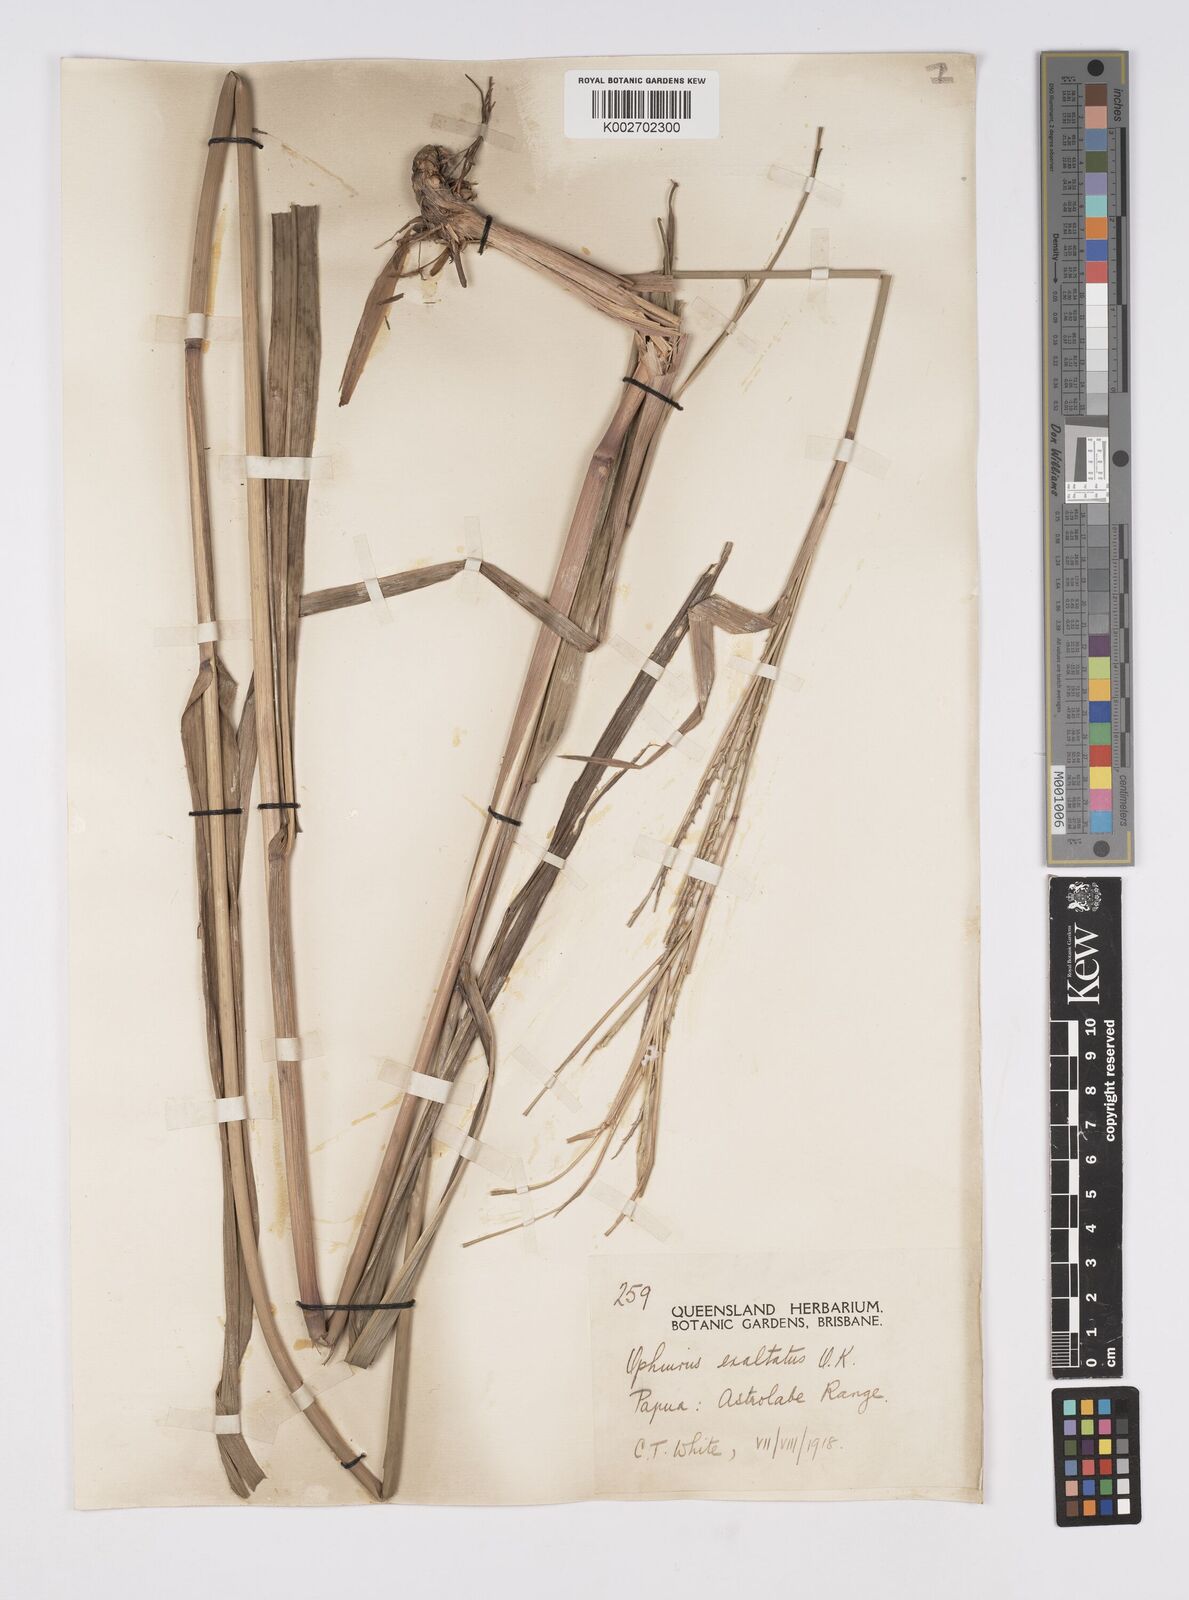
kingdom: Plantae
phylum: Tracheophyta
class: Liliopsida
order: Poales
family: Poaceae
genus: Ophiuros
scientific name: Ophiuros megaphyllus
